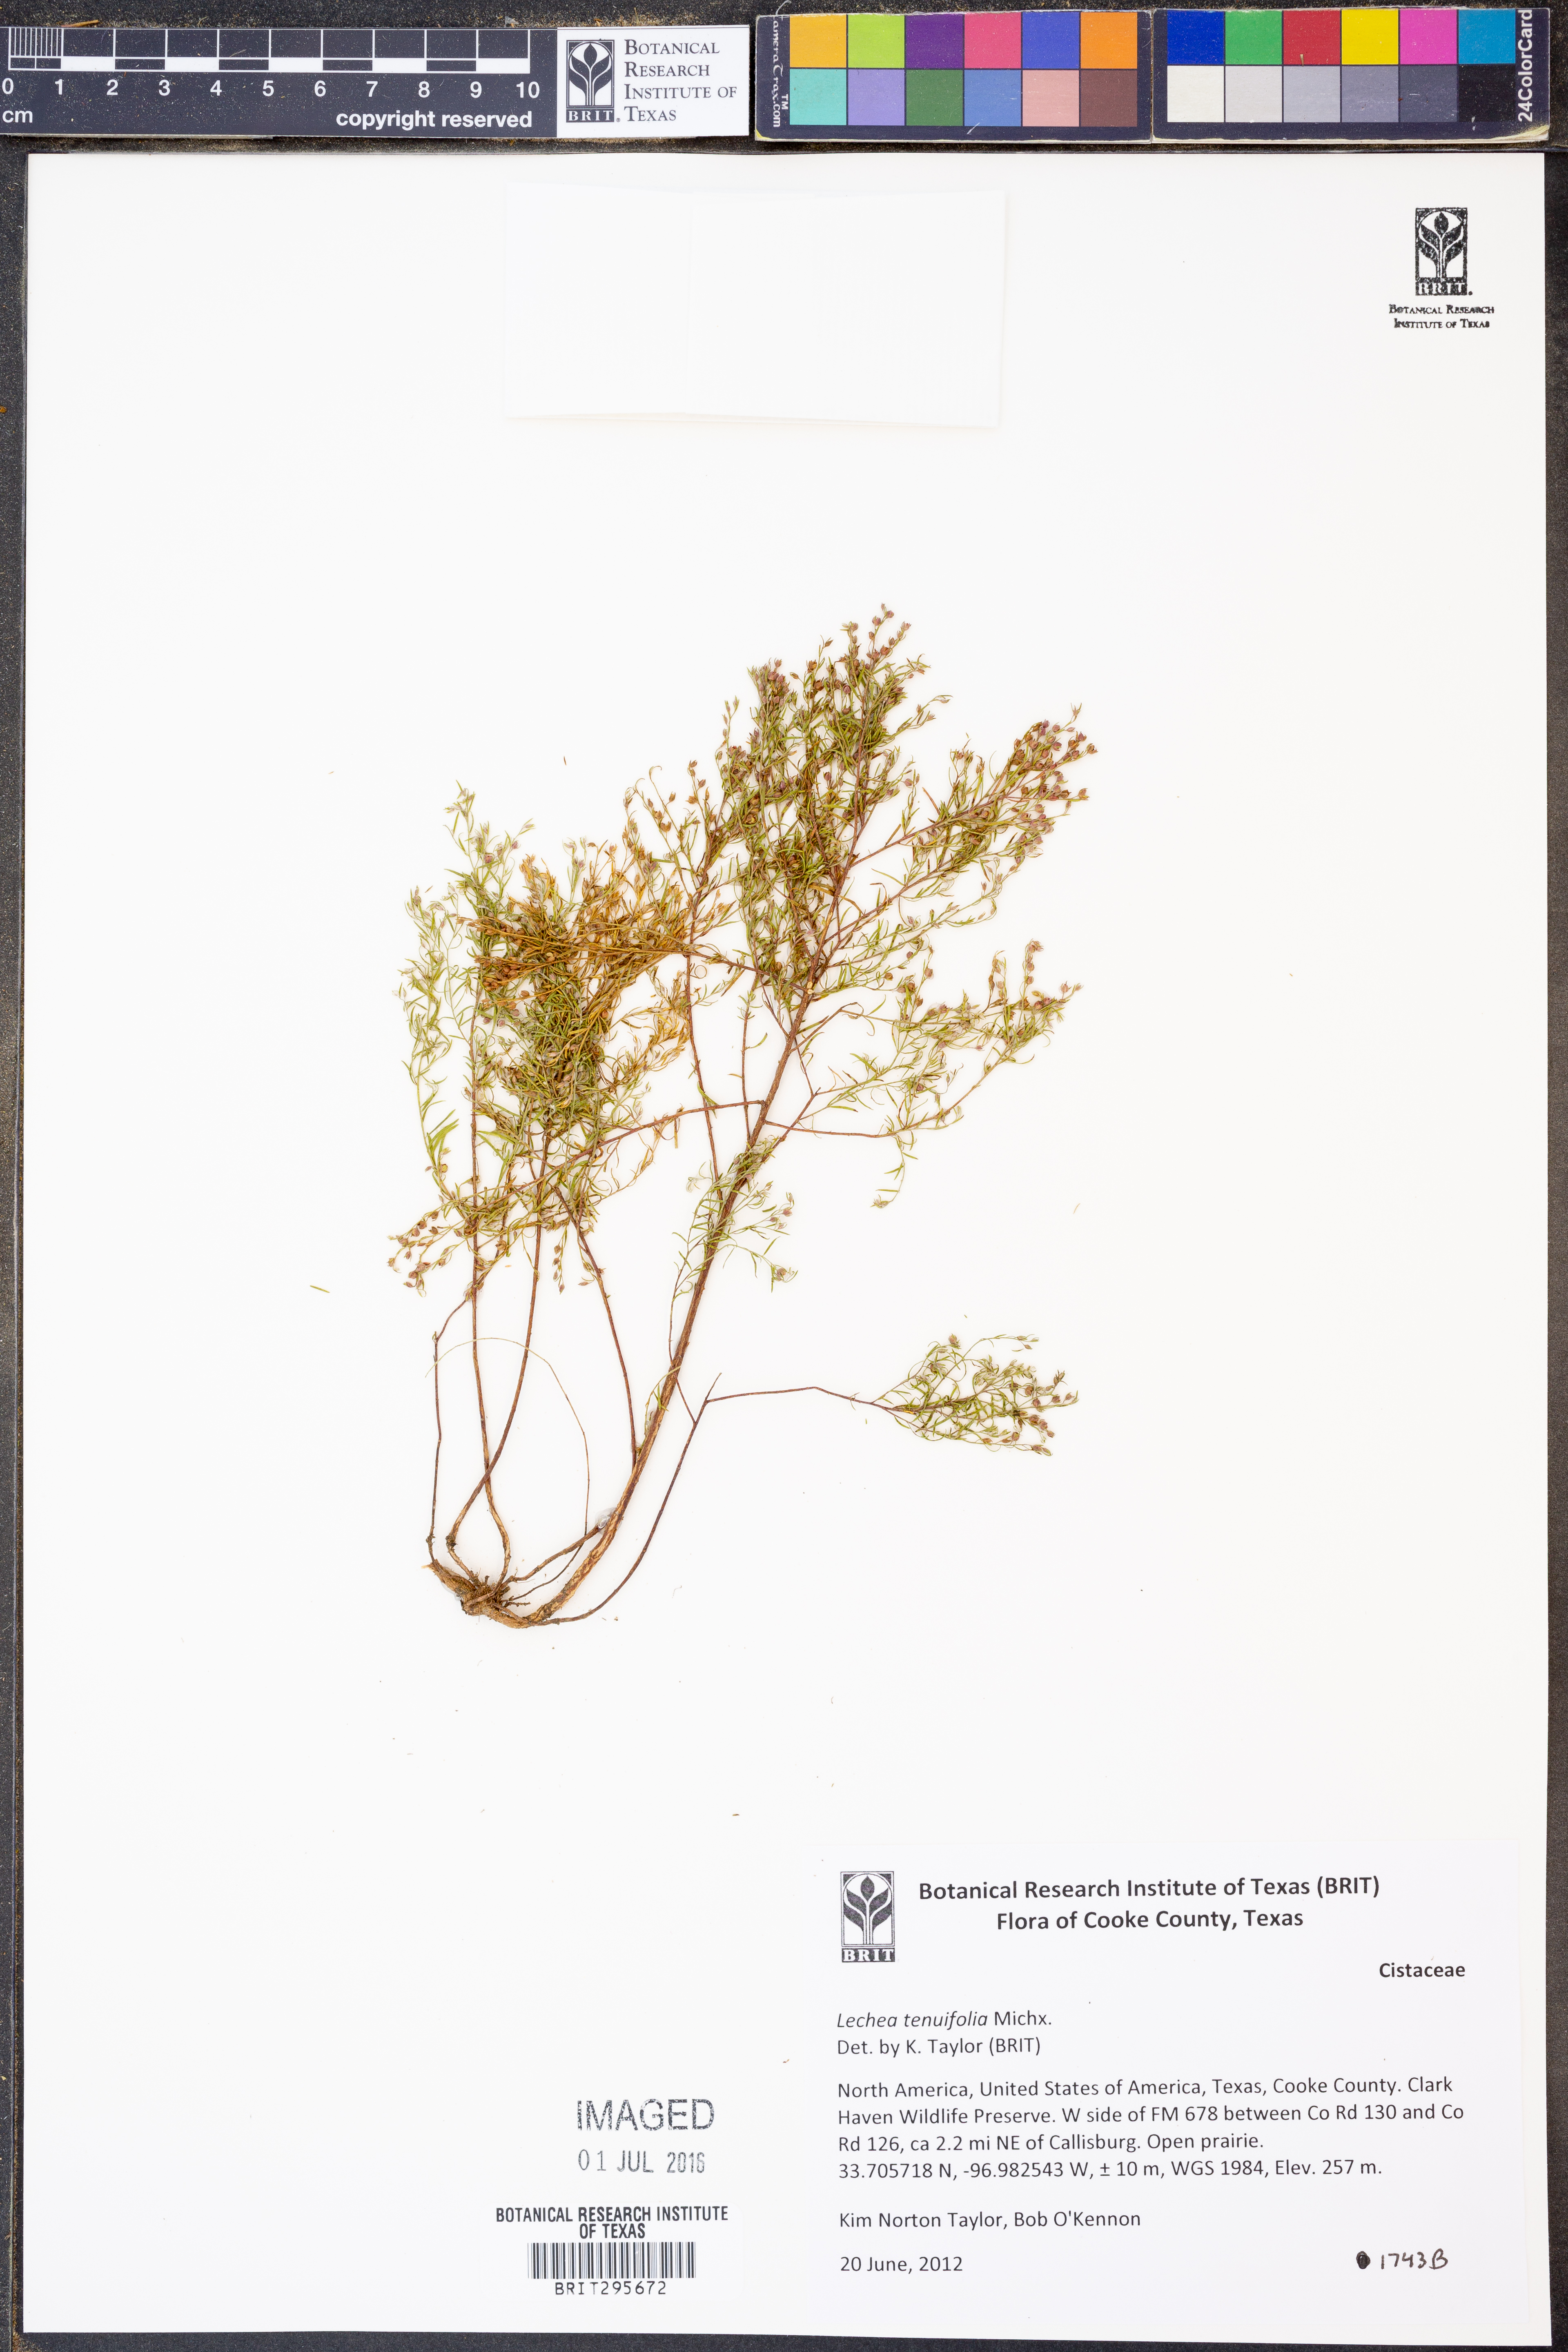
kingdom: Plantae
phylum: Tracheophyta
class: Magnoliopsida
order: Malvales
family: Cistaceae
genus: Lechea
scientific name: Lechea tenuifolia
